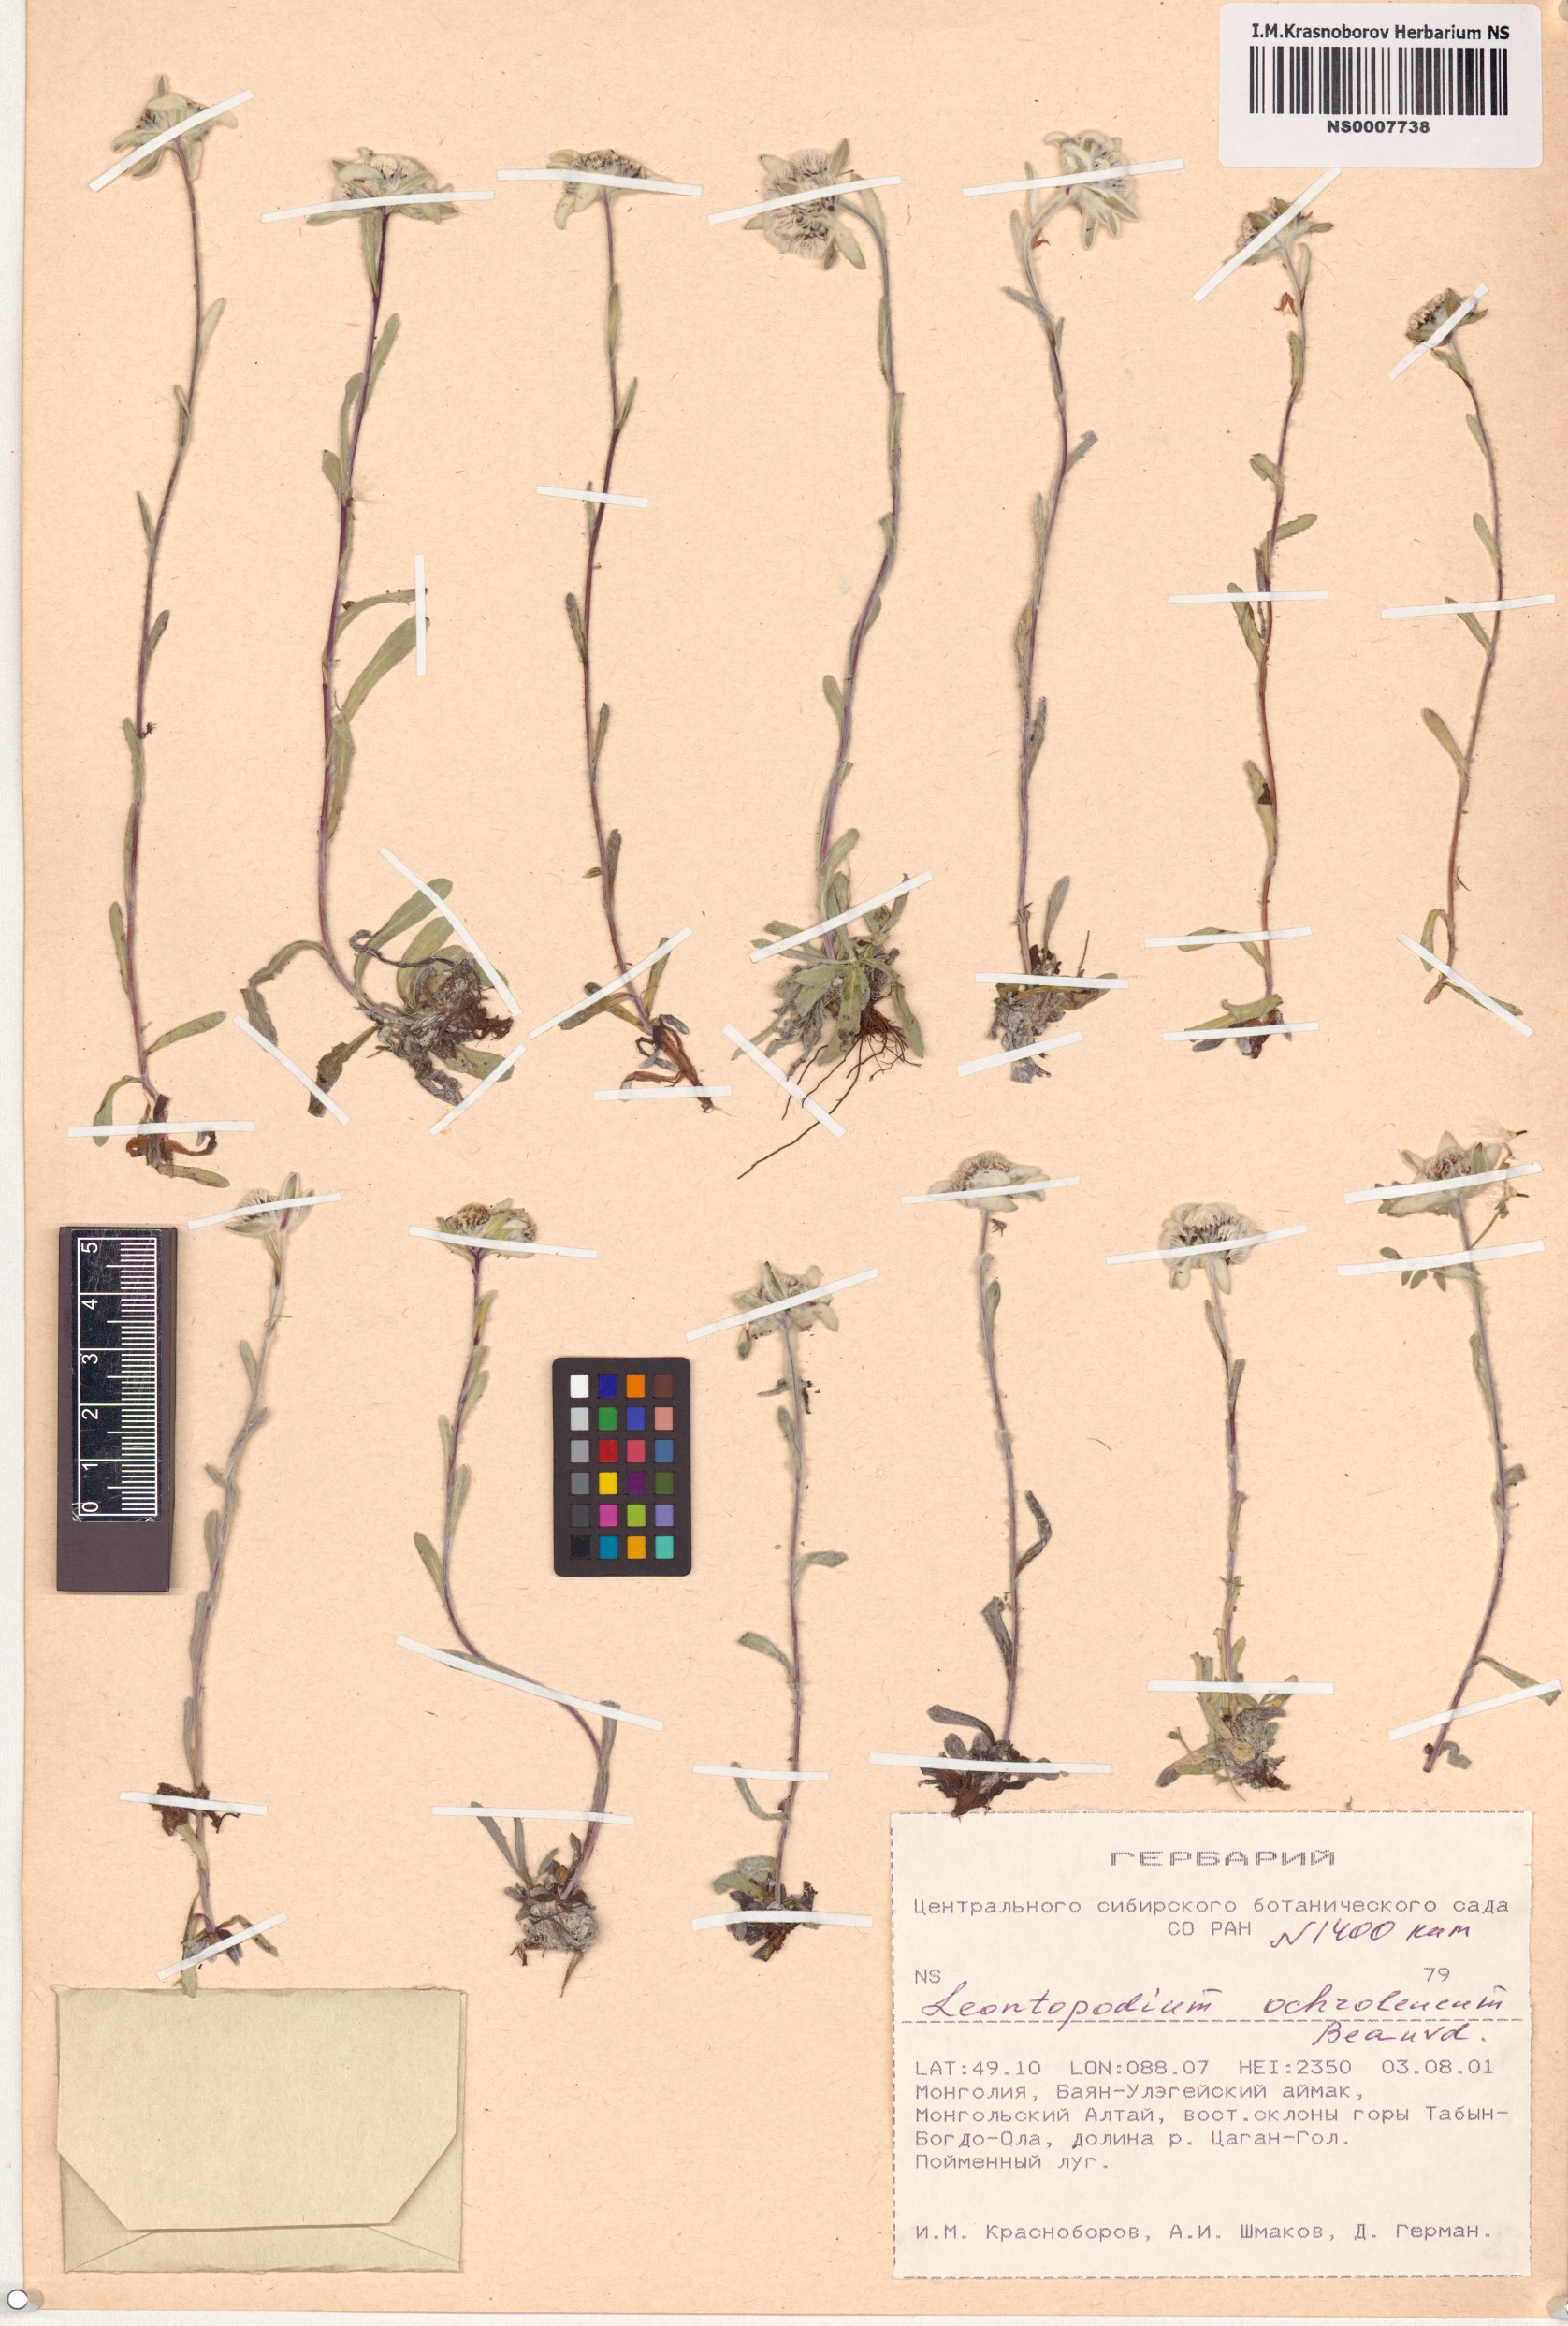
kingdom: Plantae
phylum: Tracheophyta
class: Magnoliopsida
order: Asterales
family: Asteraceae
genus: Leontopodium
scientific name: Leontopodium leontopodinum
